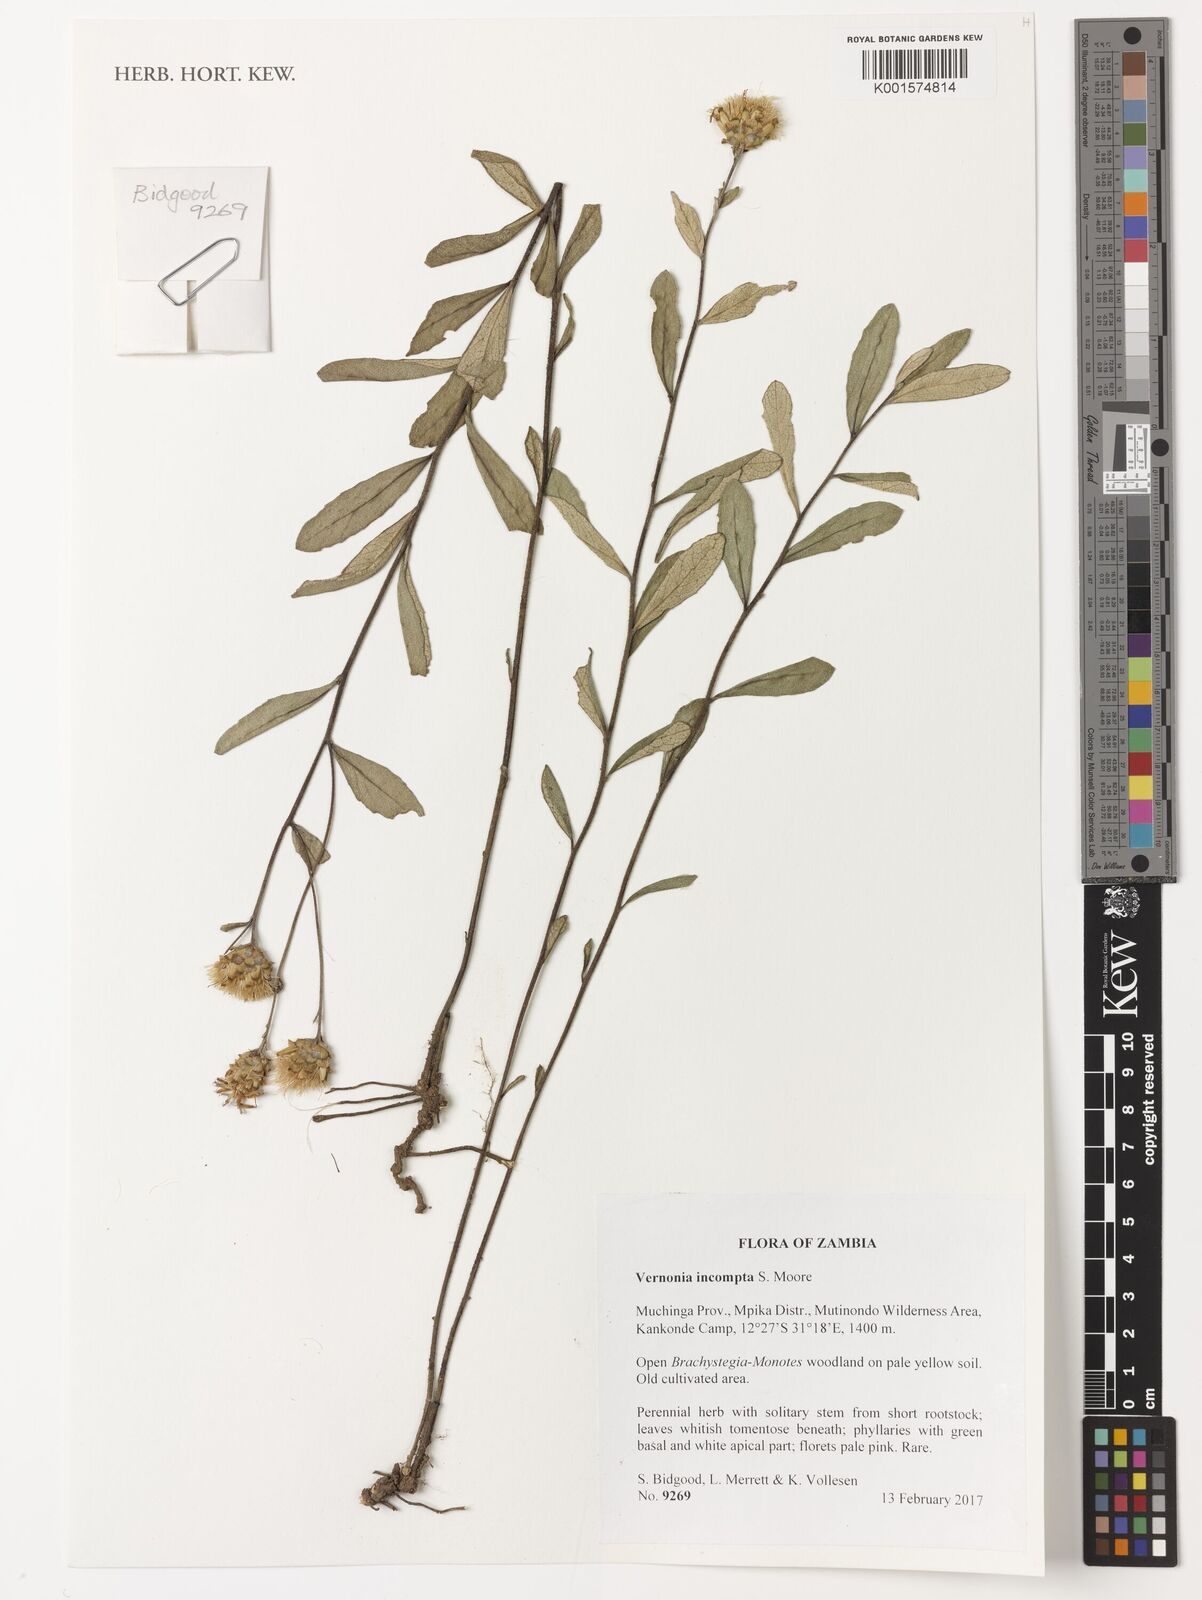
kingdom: Plantae
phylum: Tracheophyta
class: Magnoliopsida
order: Asterales
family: Asteraceae
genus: Baccharoides
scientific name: Baccharoides incompta
